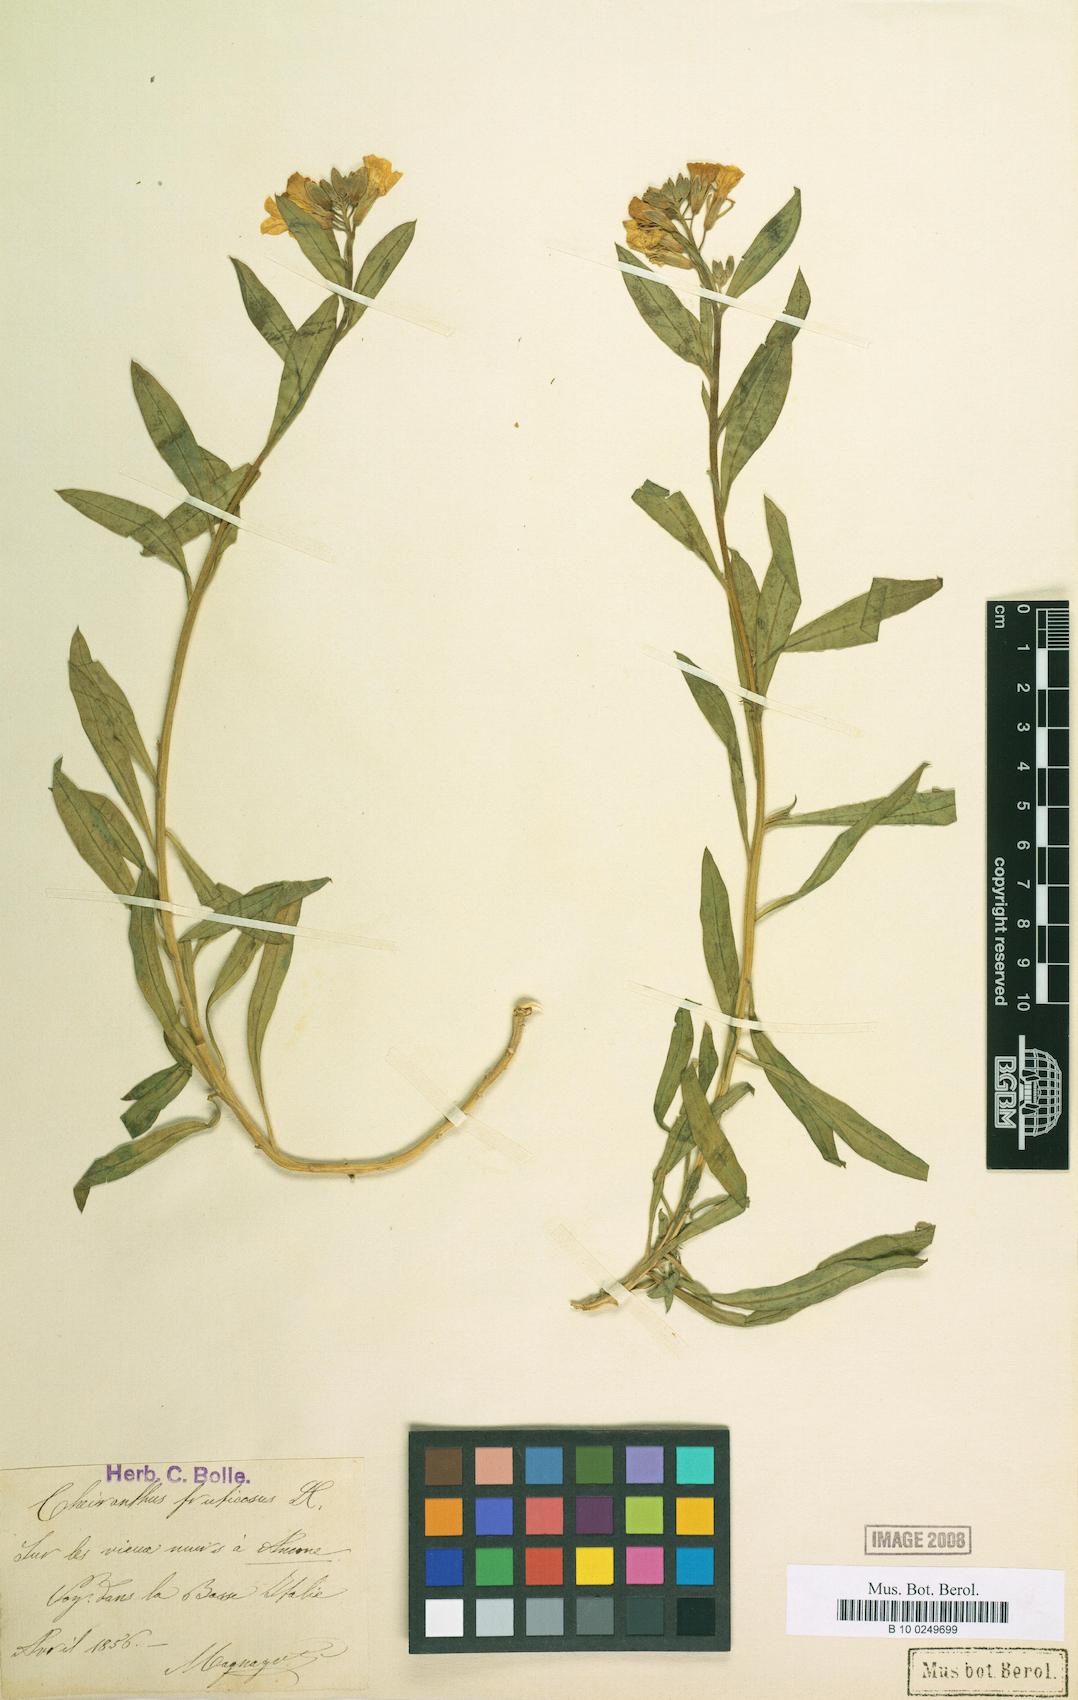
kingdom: Plantae
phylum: Tracheophyta
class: Magnoliopsida
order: Brassicales
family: Brassicaceae
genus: Erysimum
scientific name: Erysimum cheiri
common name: Wallflower
